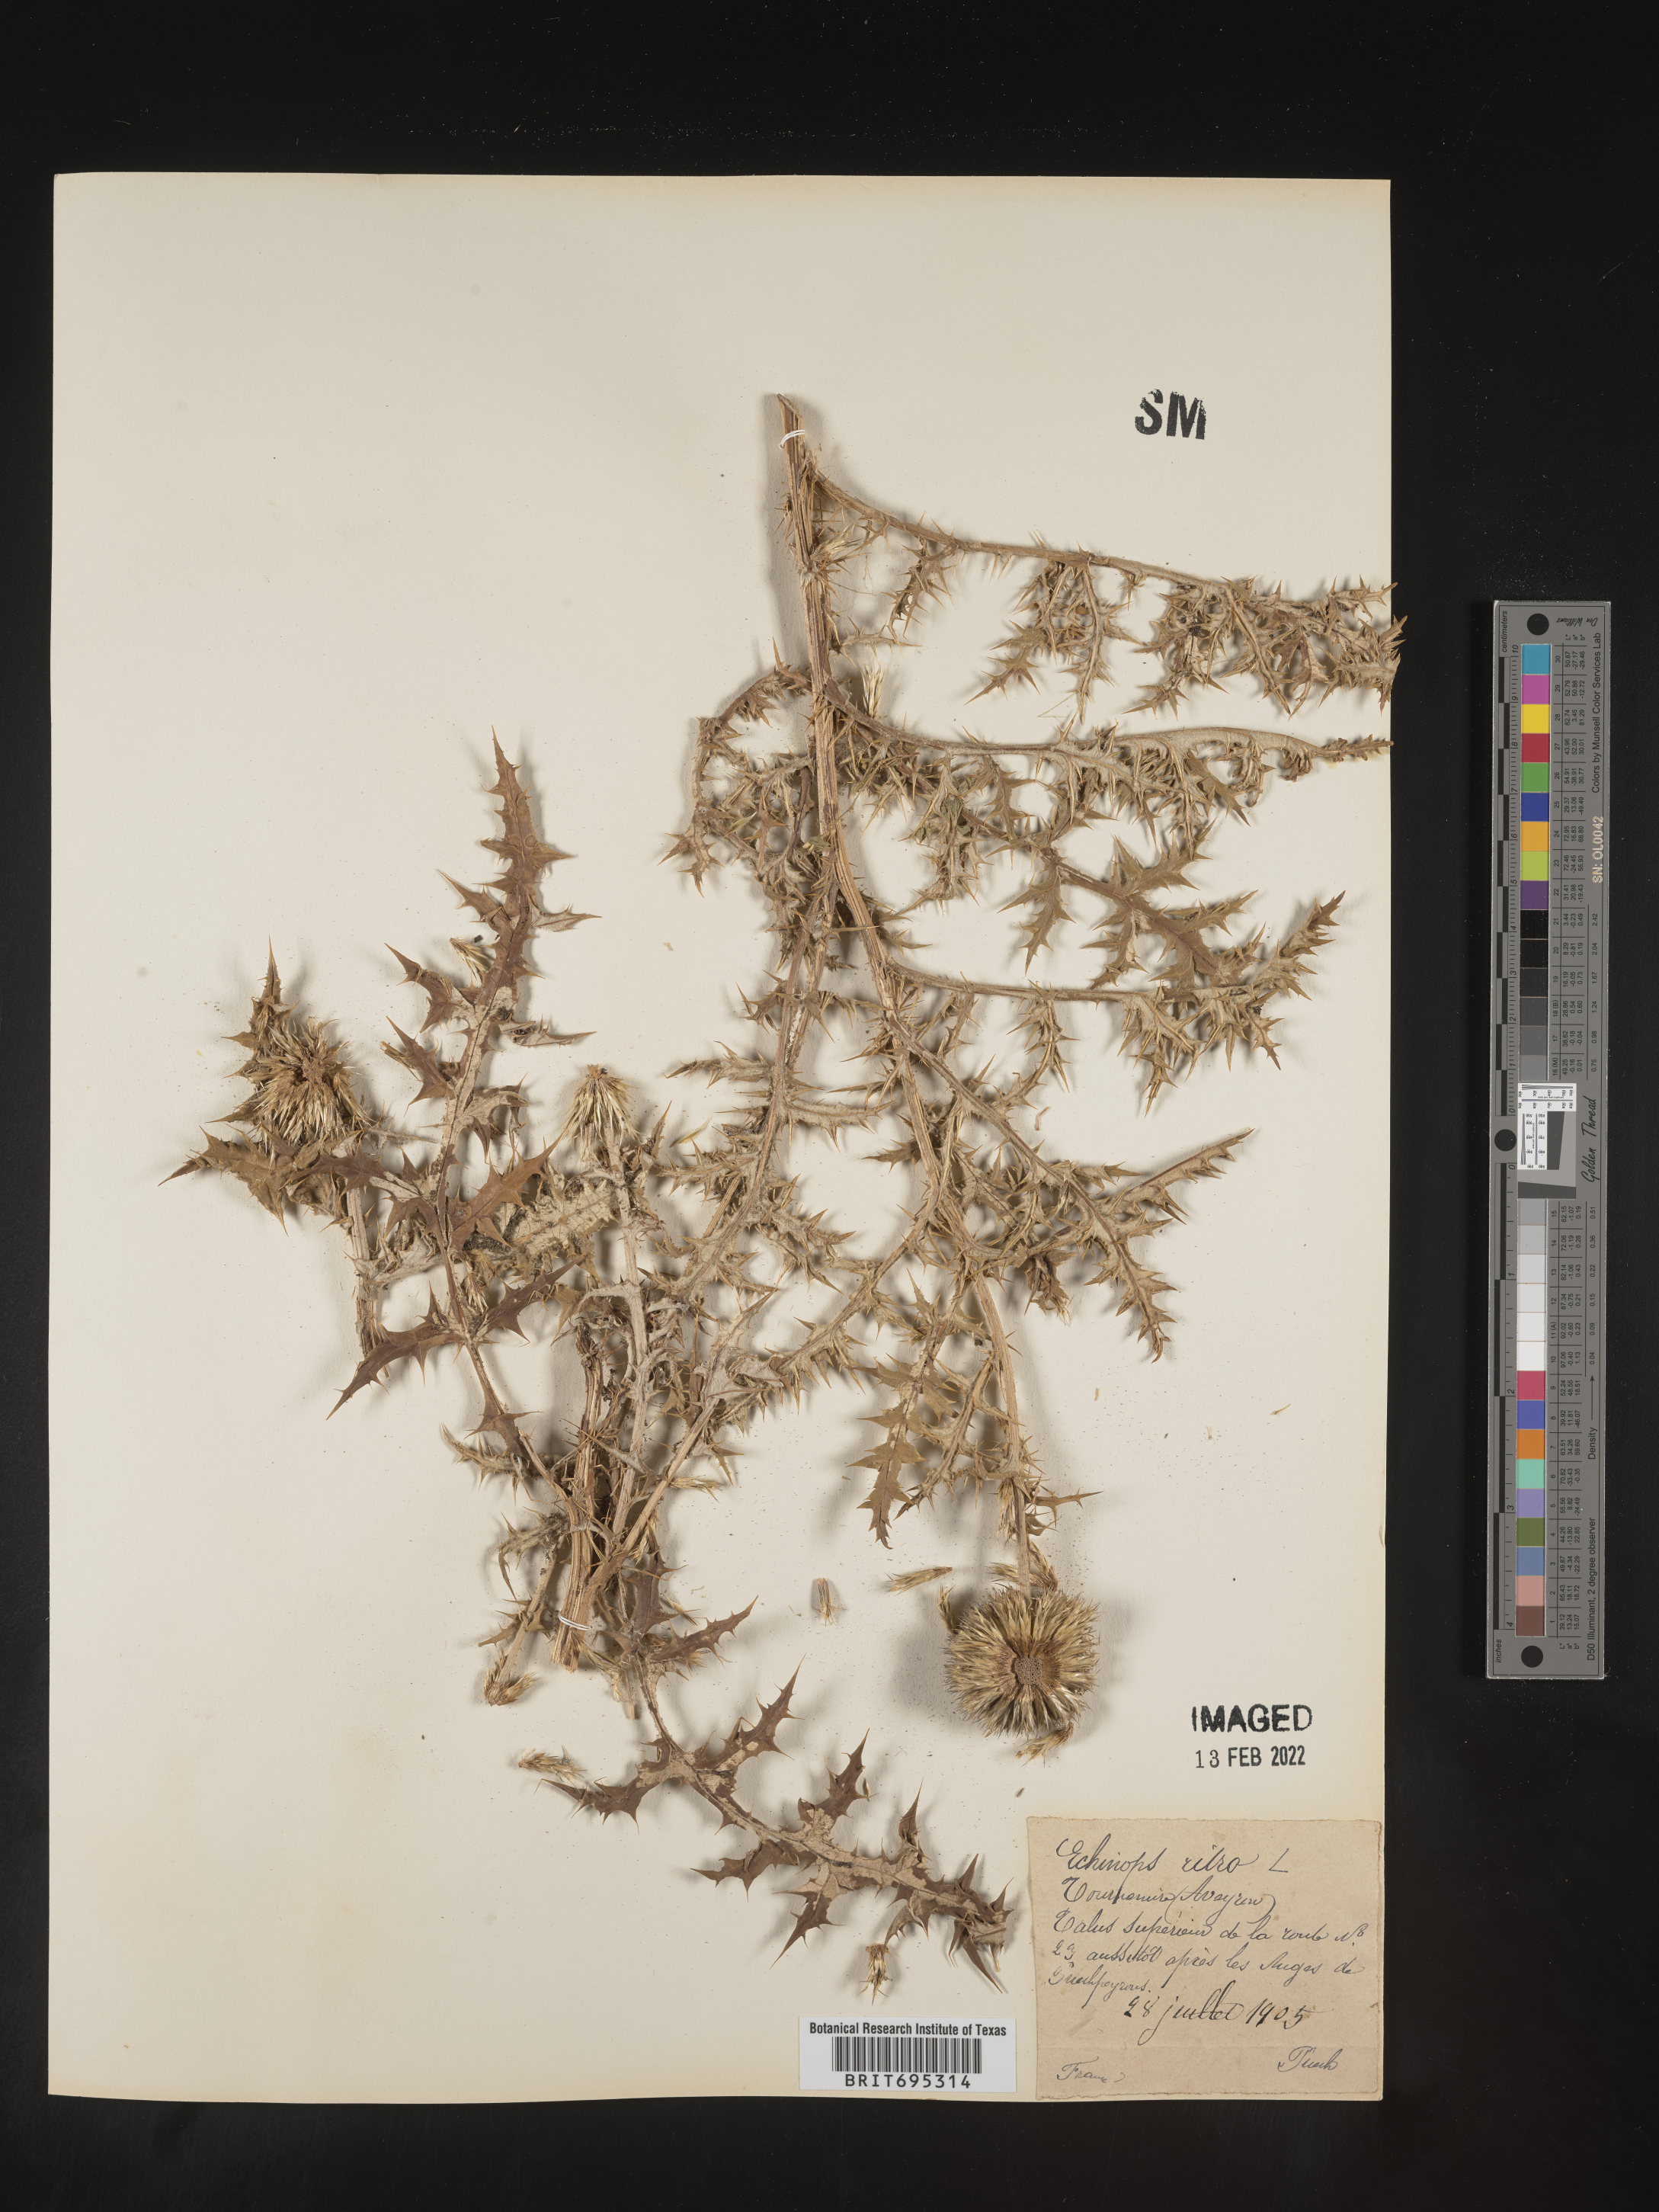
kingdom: Plantae
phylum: Tracheophyta
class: Magnoliopsida
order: Asterales
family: Asteraceae
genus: Echinops
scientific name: Echinops
